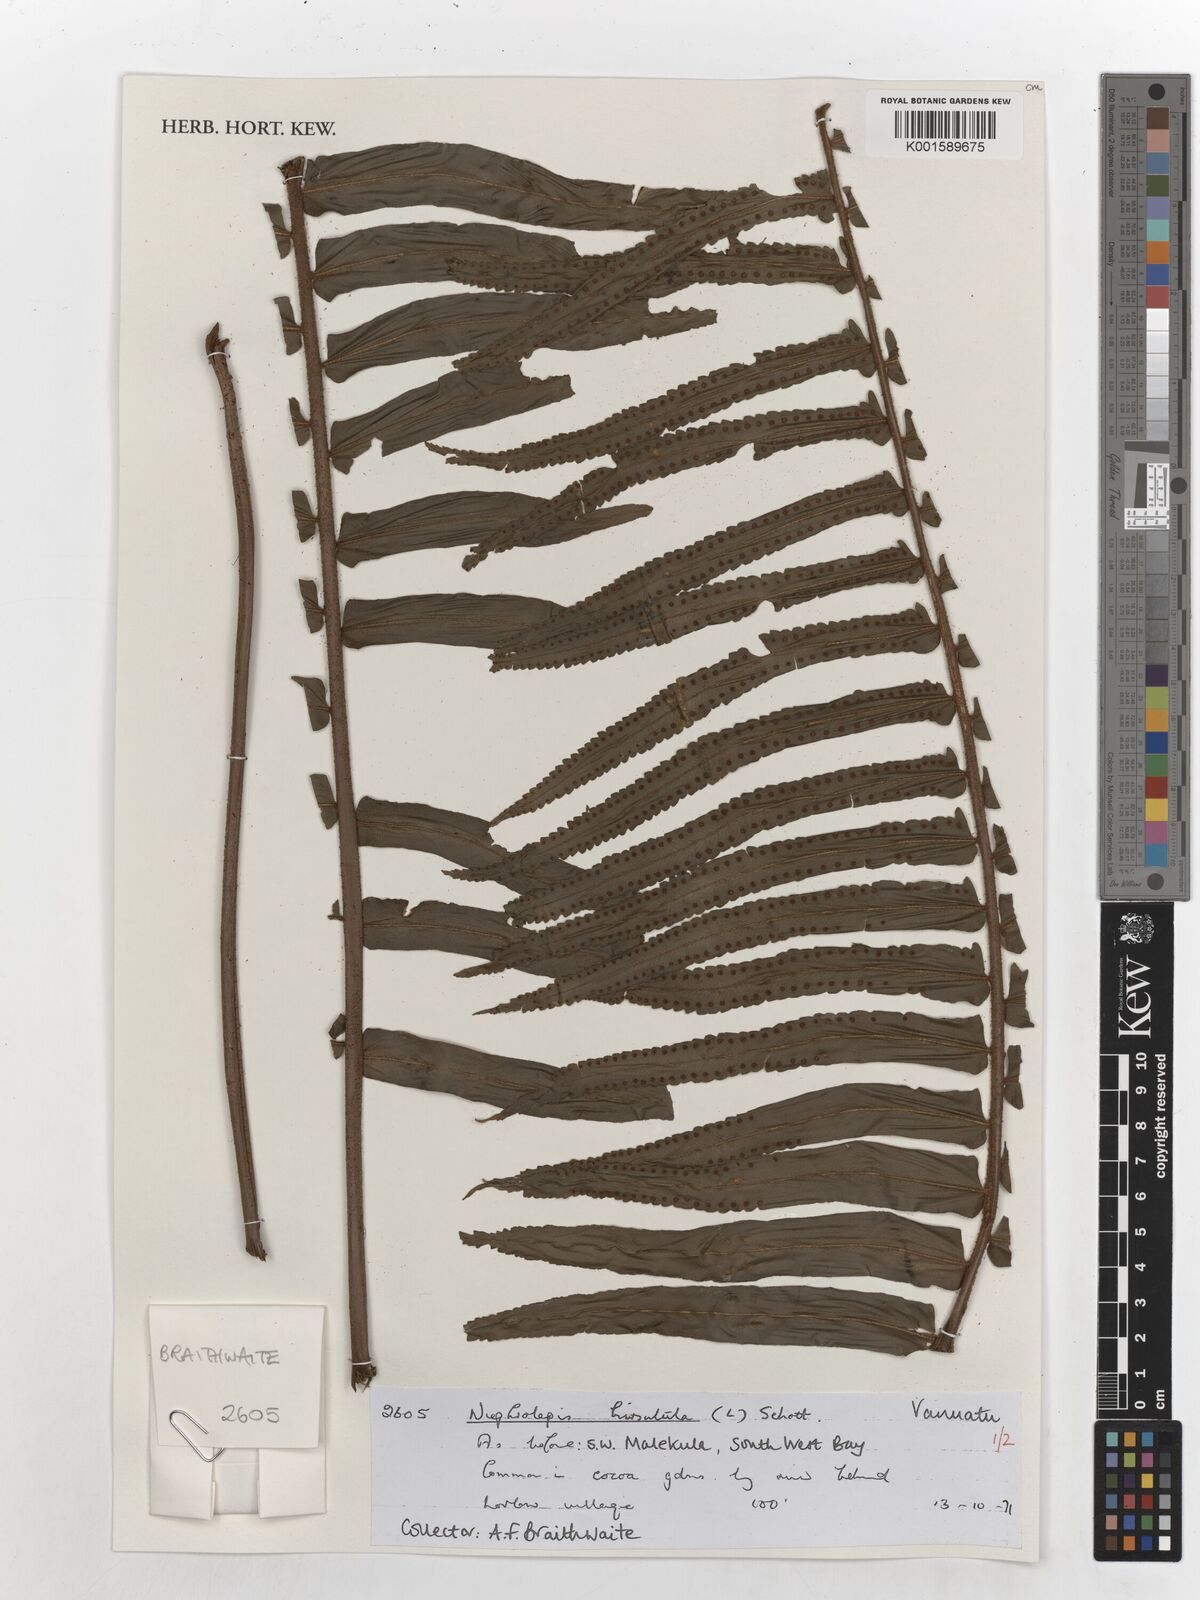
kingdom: Plantae
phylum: Tracheophyta
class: Polypodiopsida
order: Polypodiales
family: Nephrolepidaceae
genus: Nephrolepis
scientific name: Nephrolepis hirsutula
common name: Asian sword fern
